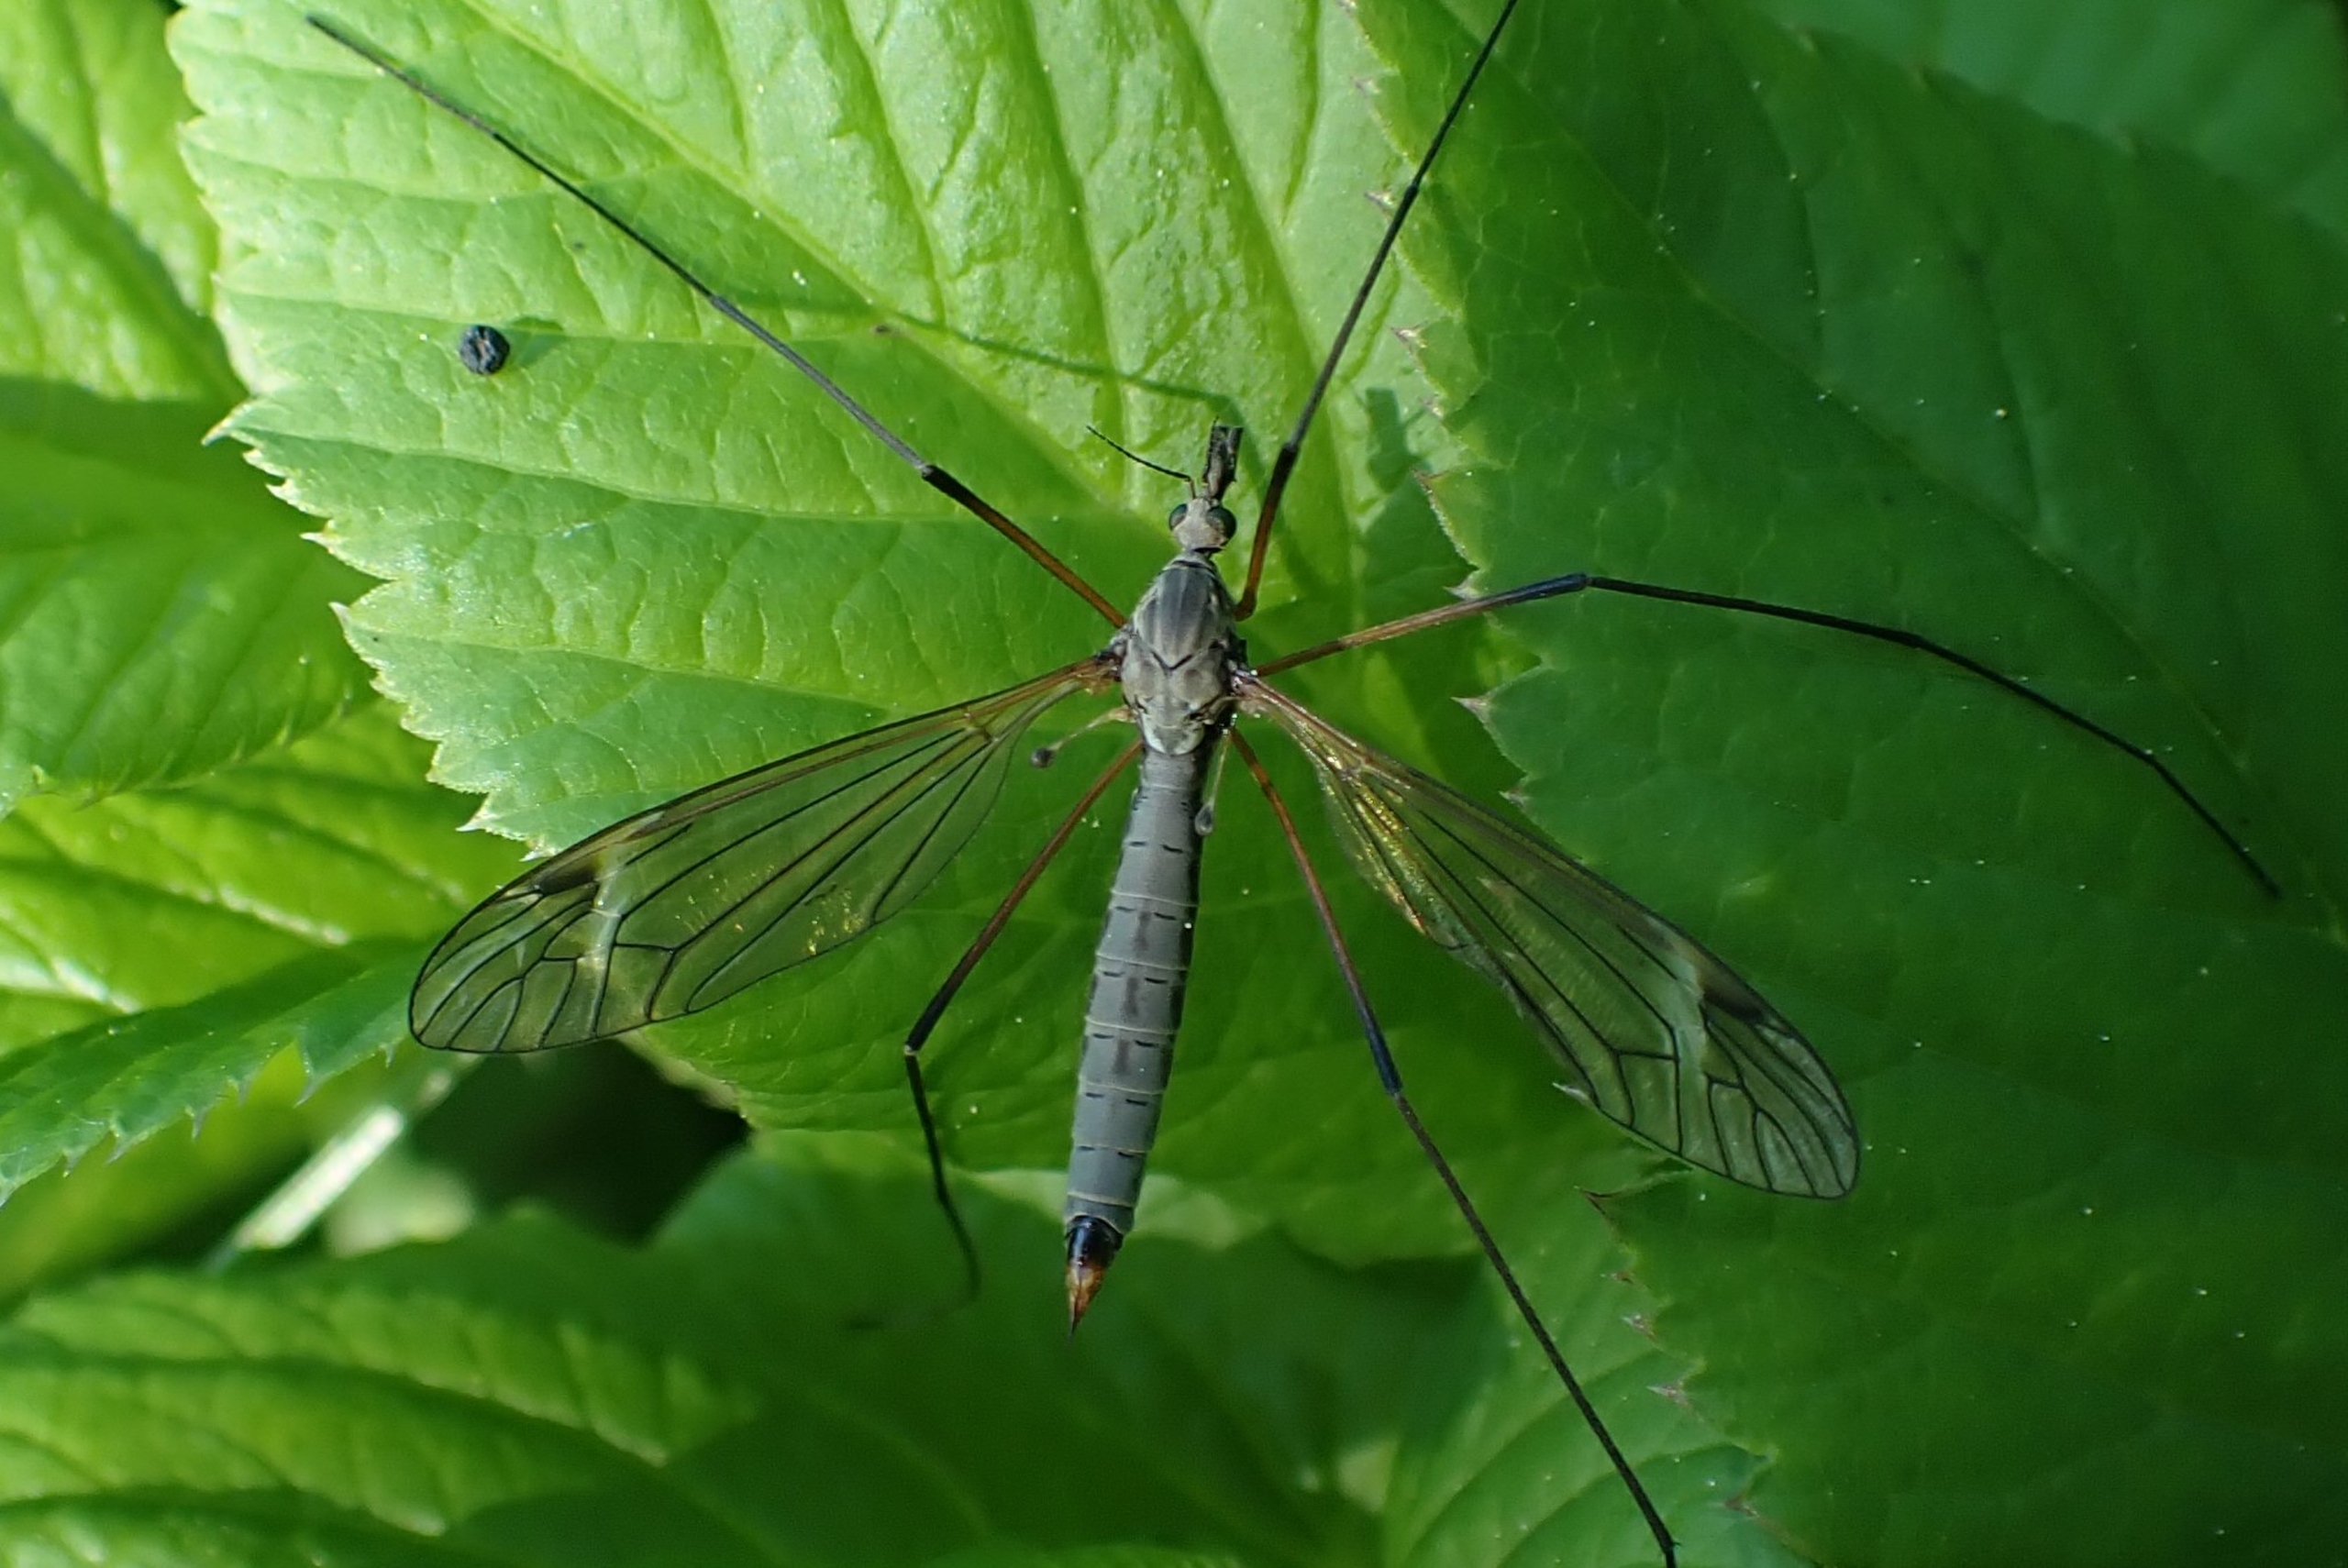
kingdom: Animalia
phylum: Arthropoda
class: Insecta
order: Diptera
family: Tipulidae
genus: Tipula
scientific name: Tipula luna
